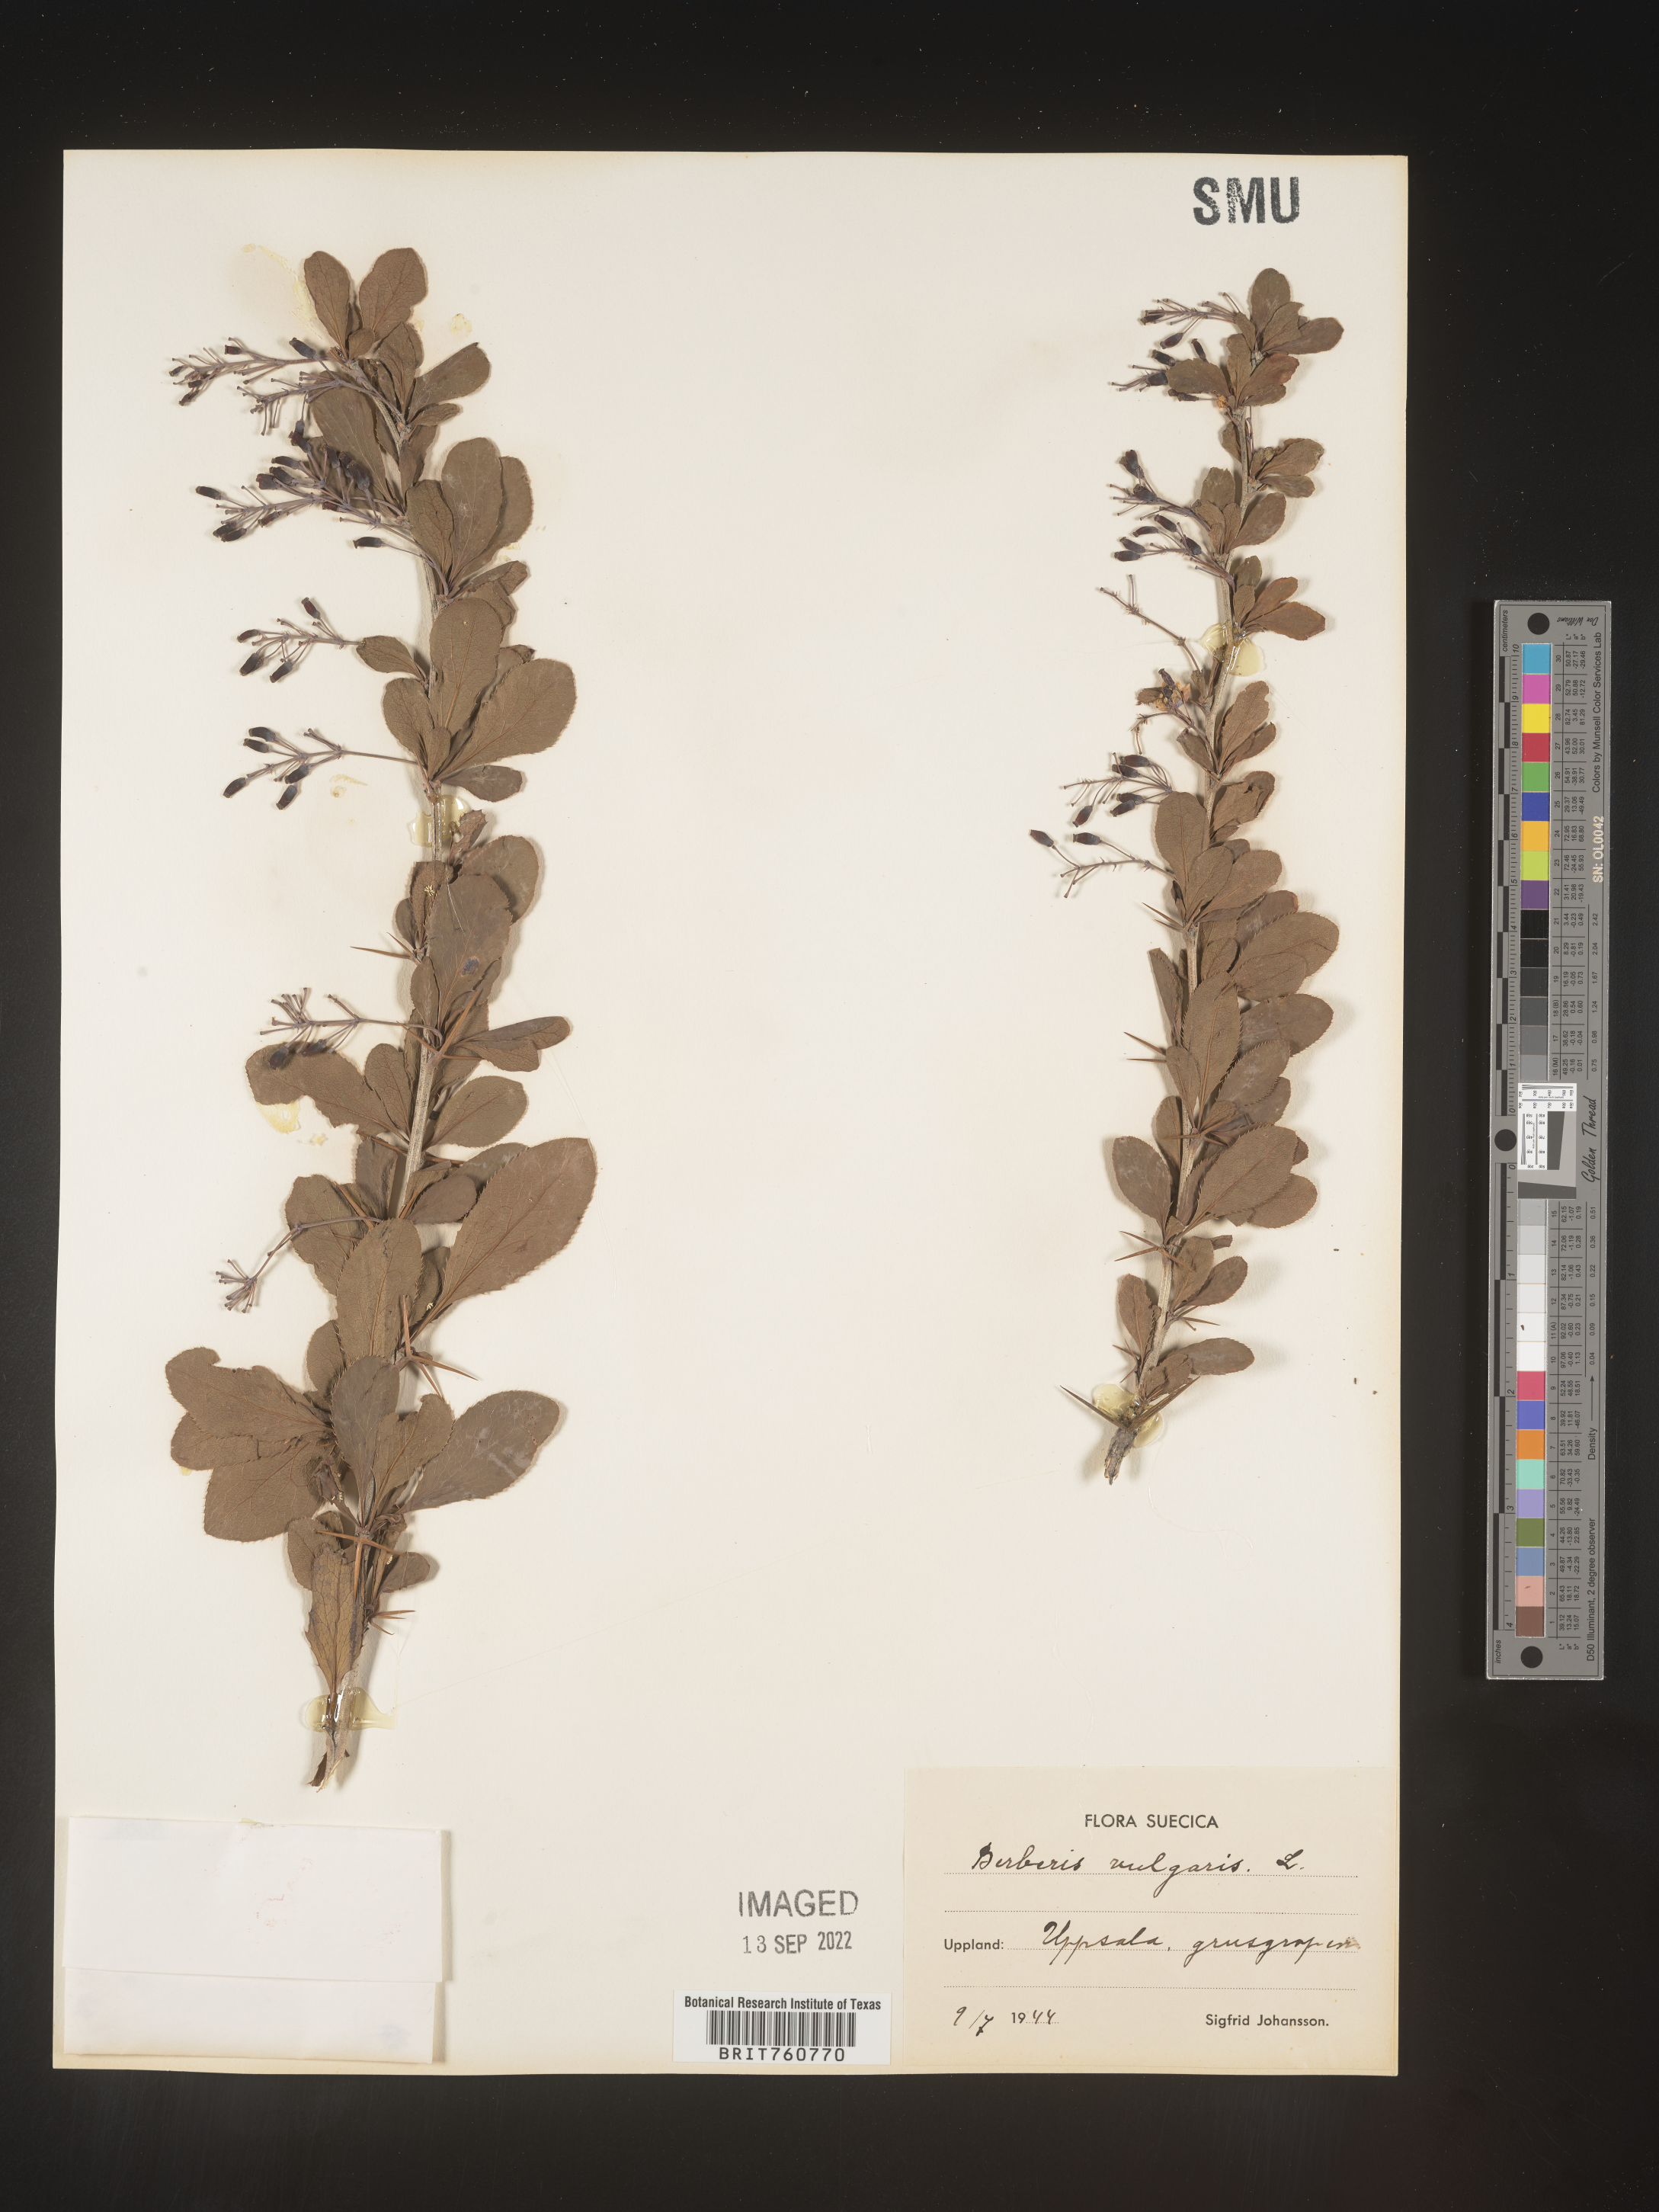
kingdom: Plantae
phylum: Tracheophyta
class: Magnoliopsida
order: Ranunculales
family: Berberidaceae
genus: Berberis
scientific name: Berberis
